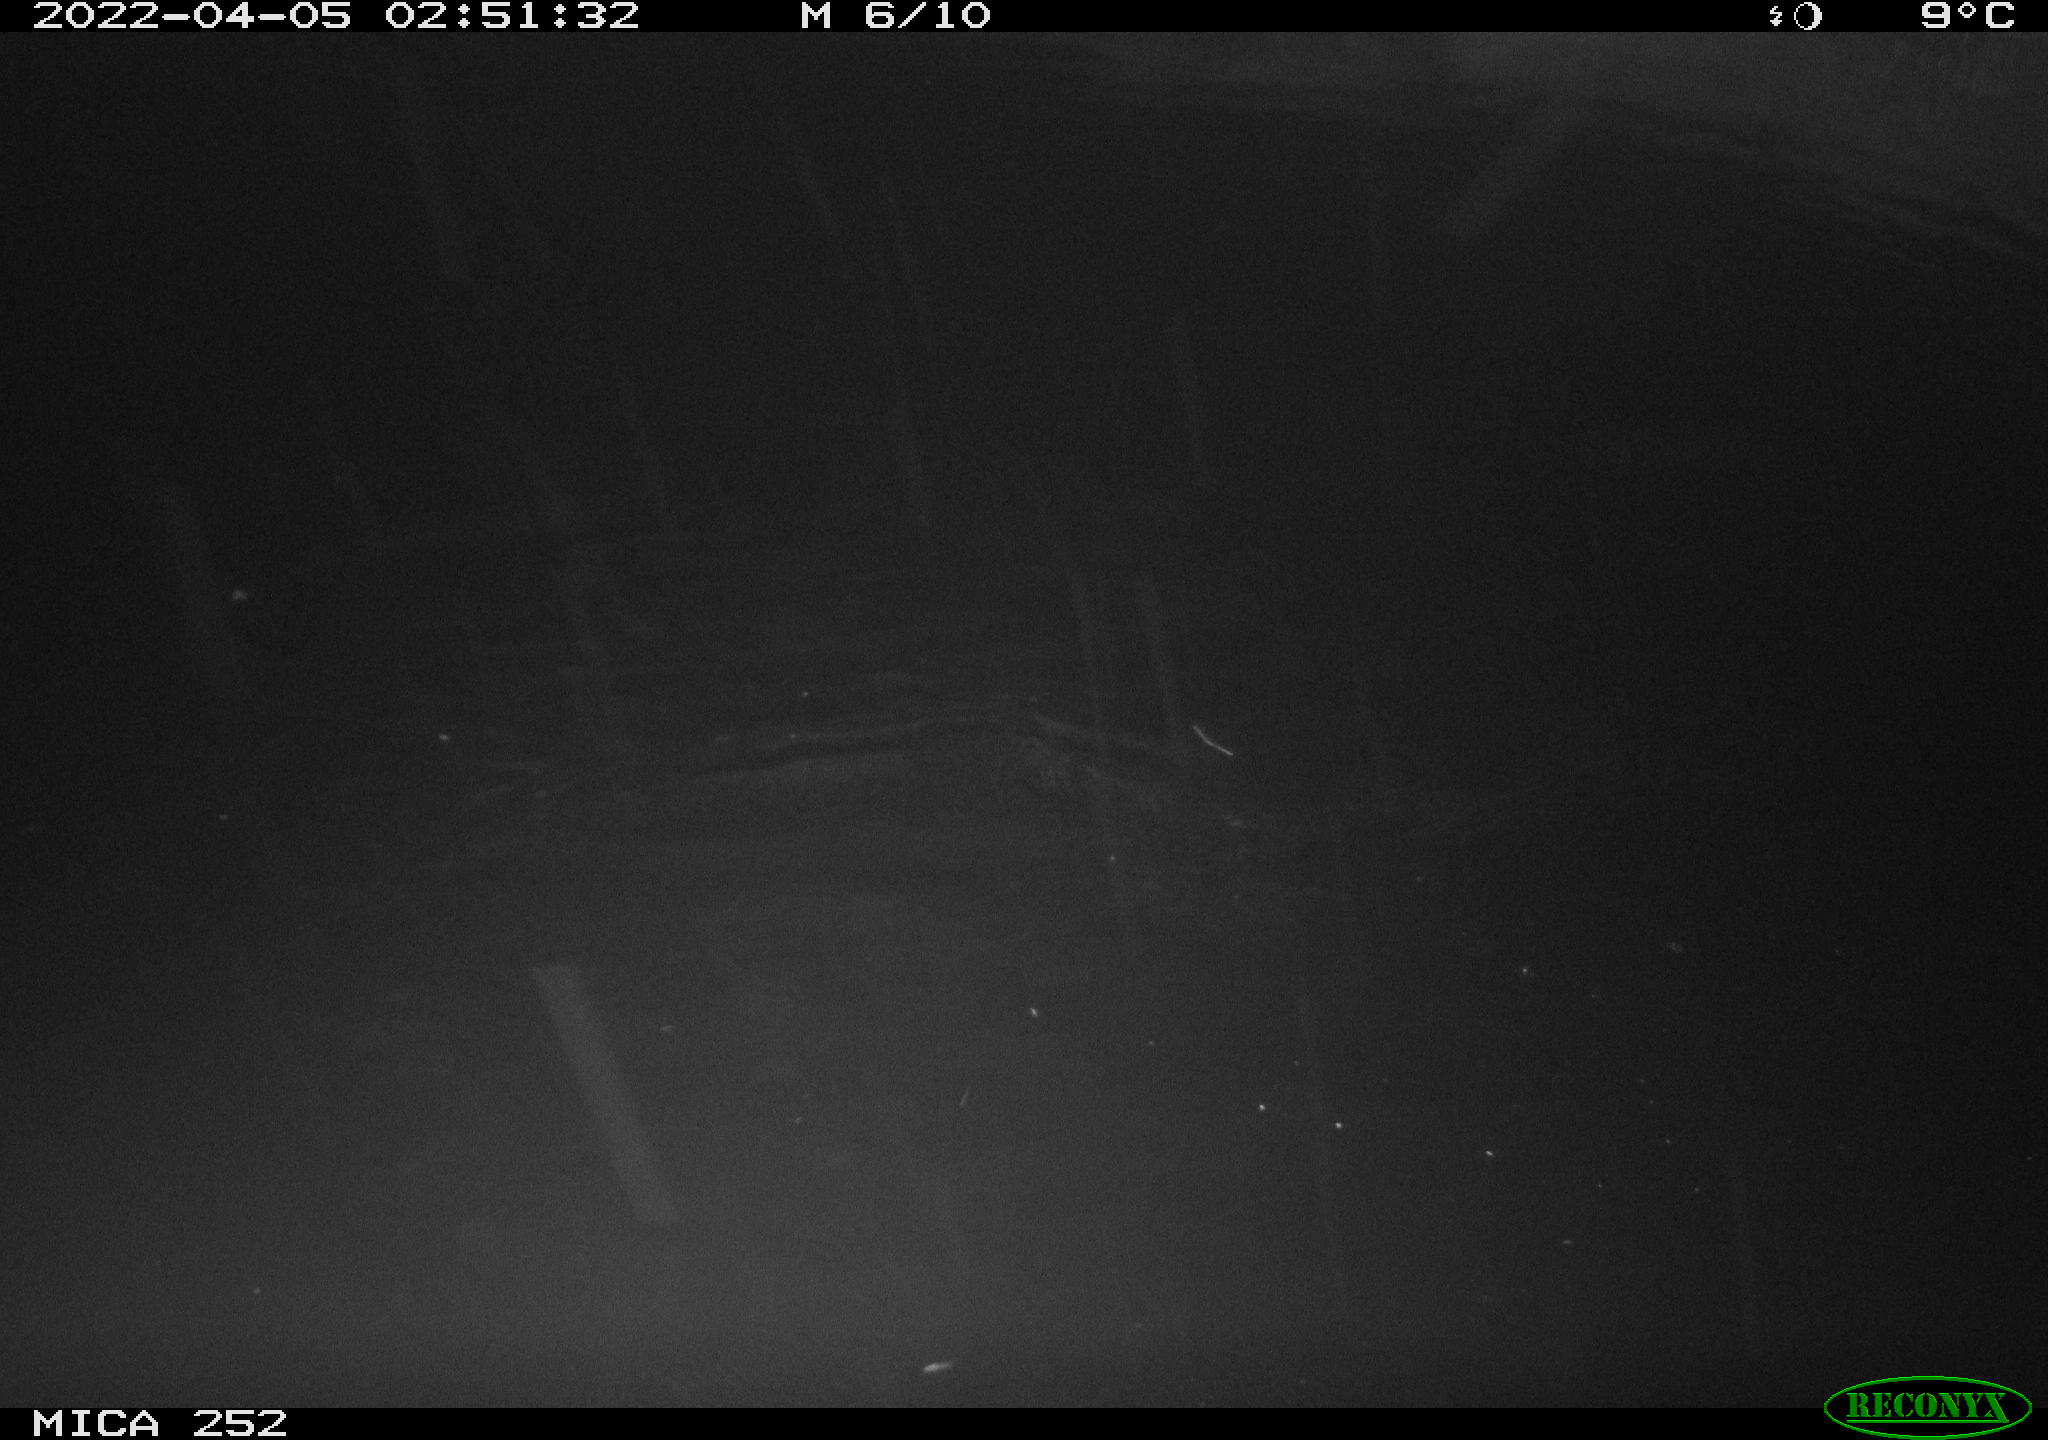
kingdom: Animalia
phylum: Chordata
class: Mammalia
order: Rodentia
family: Castoridae
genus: Castor
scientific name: Castor fiber
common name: Eurasian beaver
